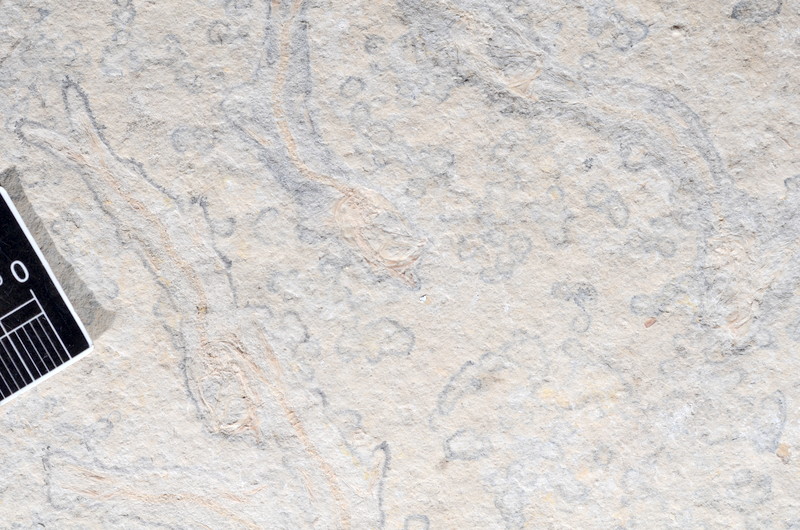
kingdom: Animalia
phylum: Chordata
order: Salmoniformes
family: Orthogonikleithridae
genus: Leptolepides
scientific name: Leptolepides sprattiformis
